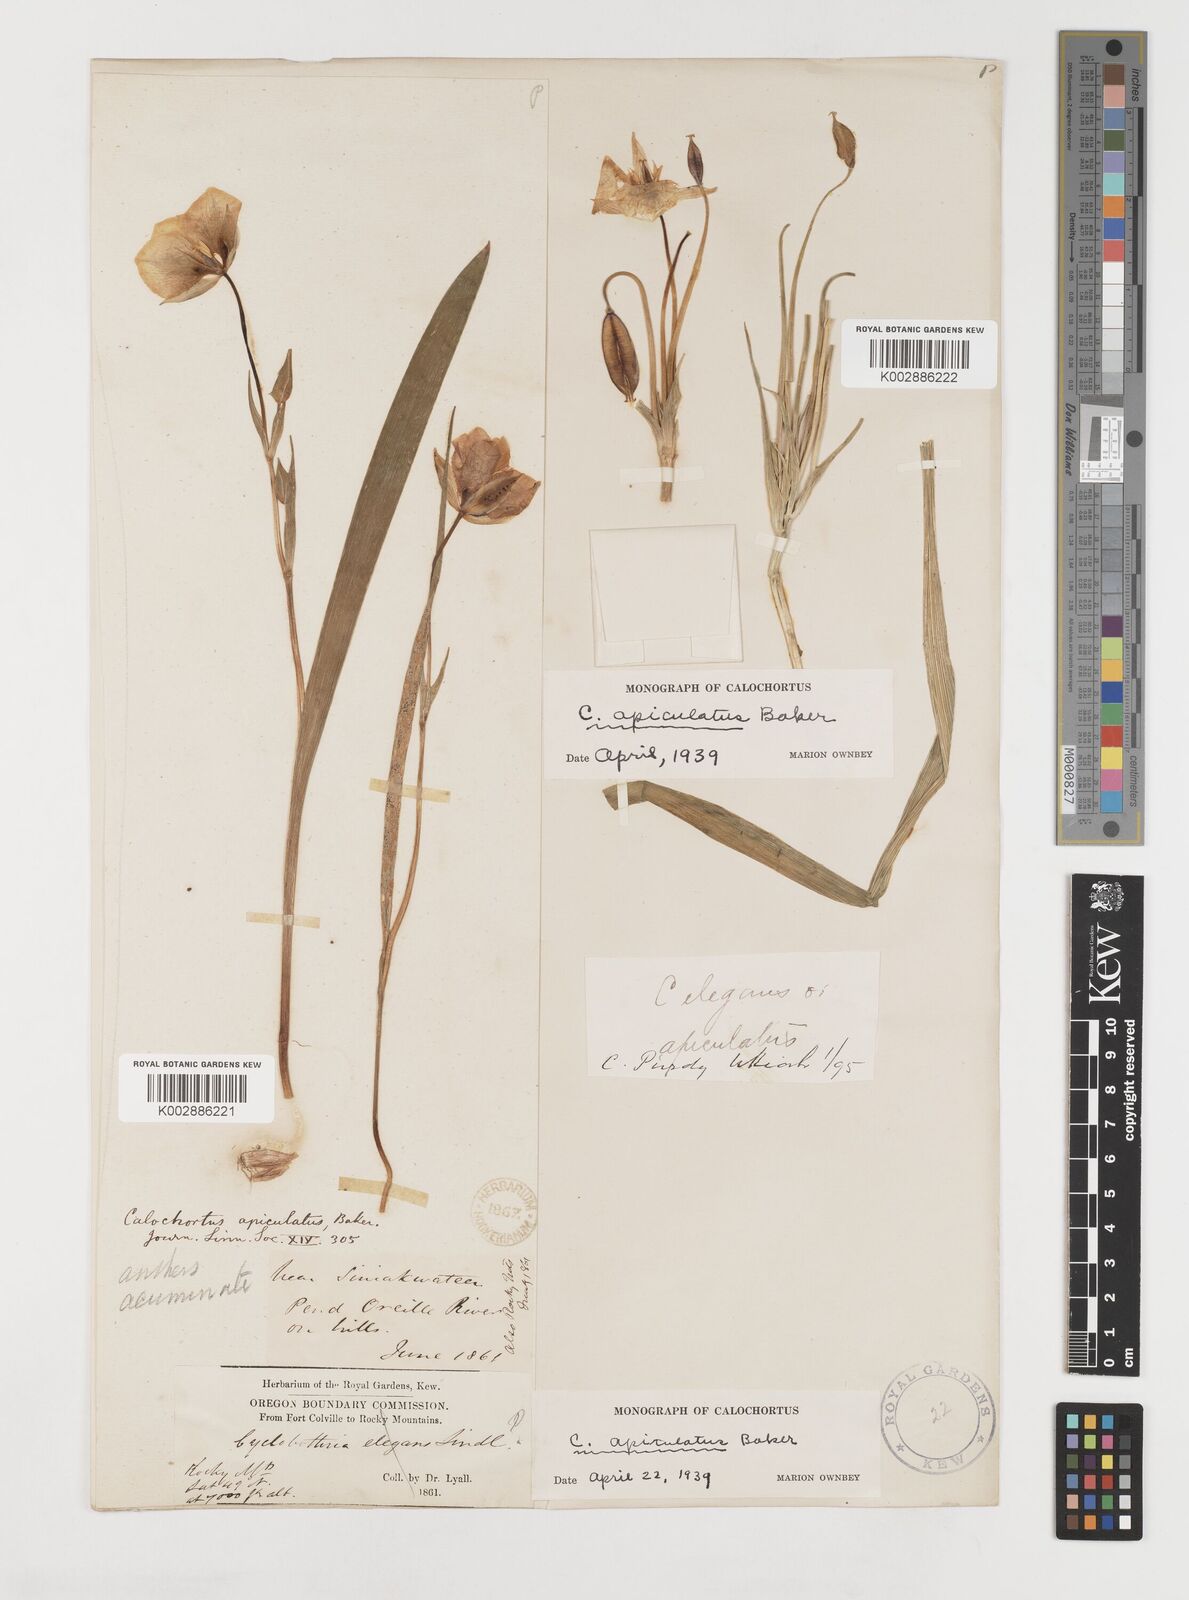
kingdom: Plantae
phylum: Tracheophyta
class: Liliopsida
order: Liliales
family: Liliaceae
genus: Calochortus
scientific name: Calochortus apiculatus
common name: Baker's mariposa lily
